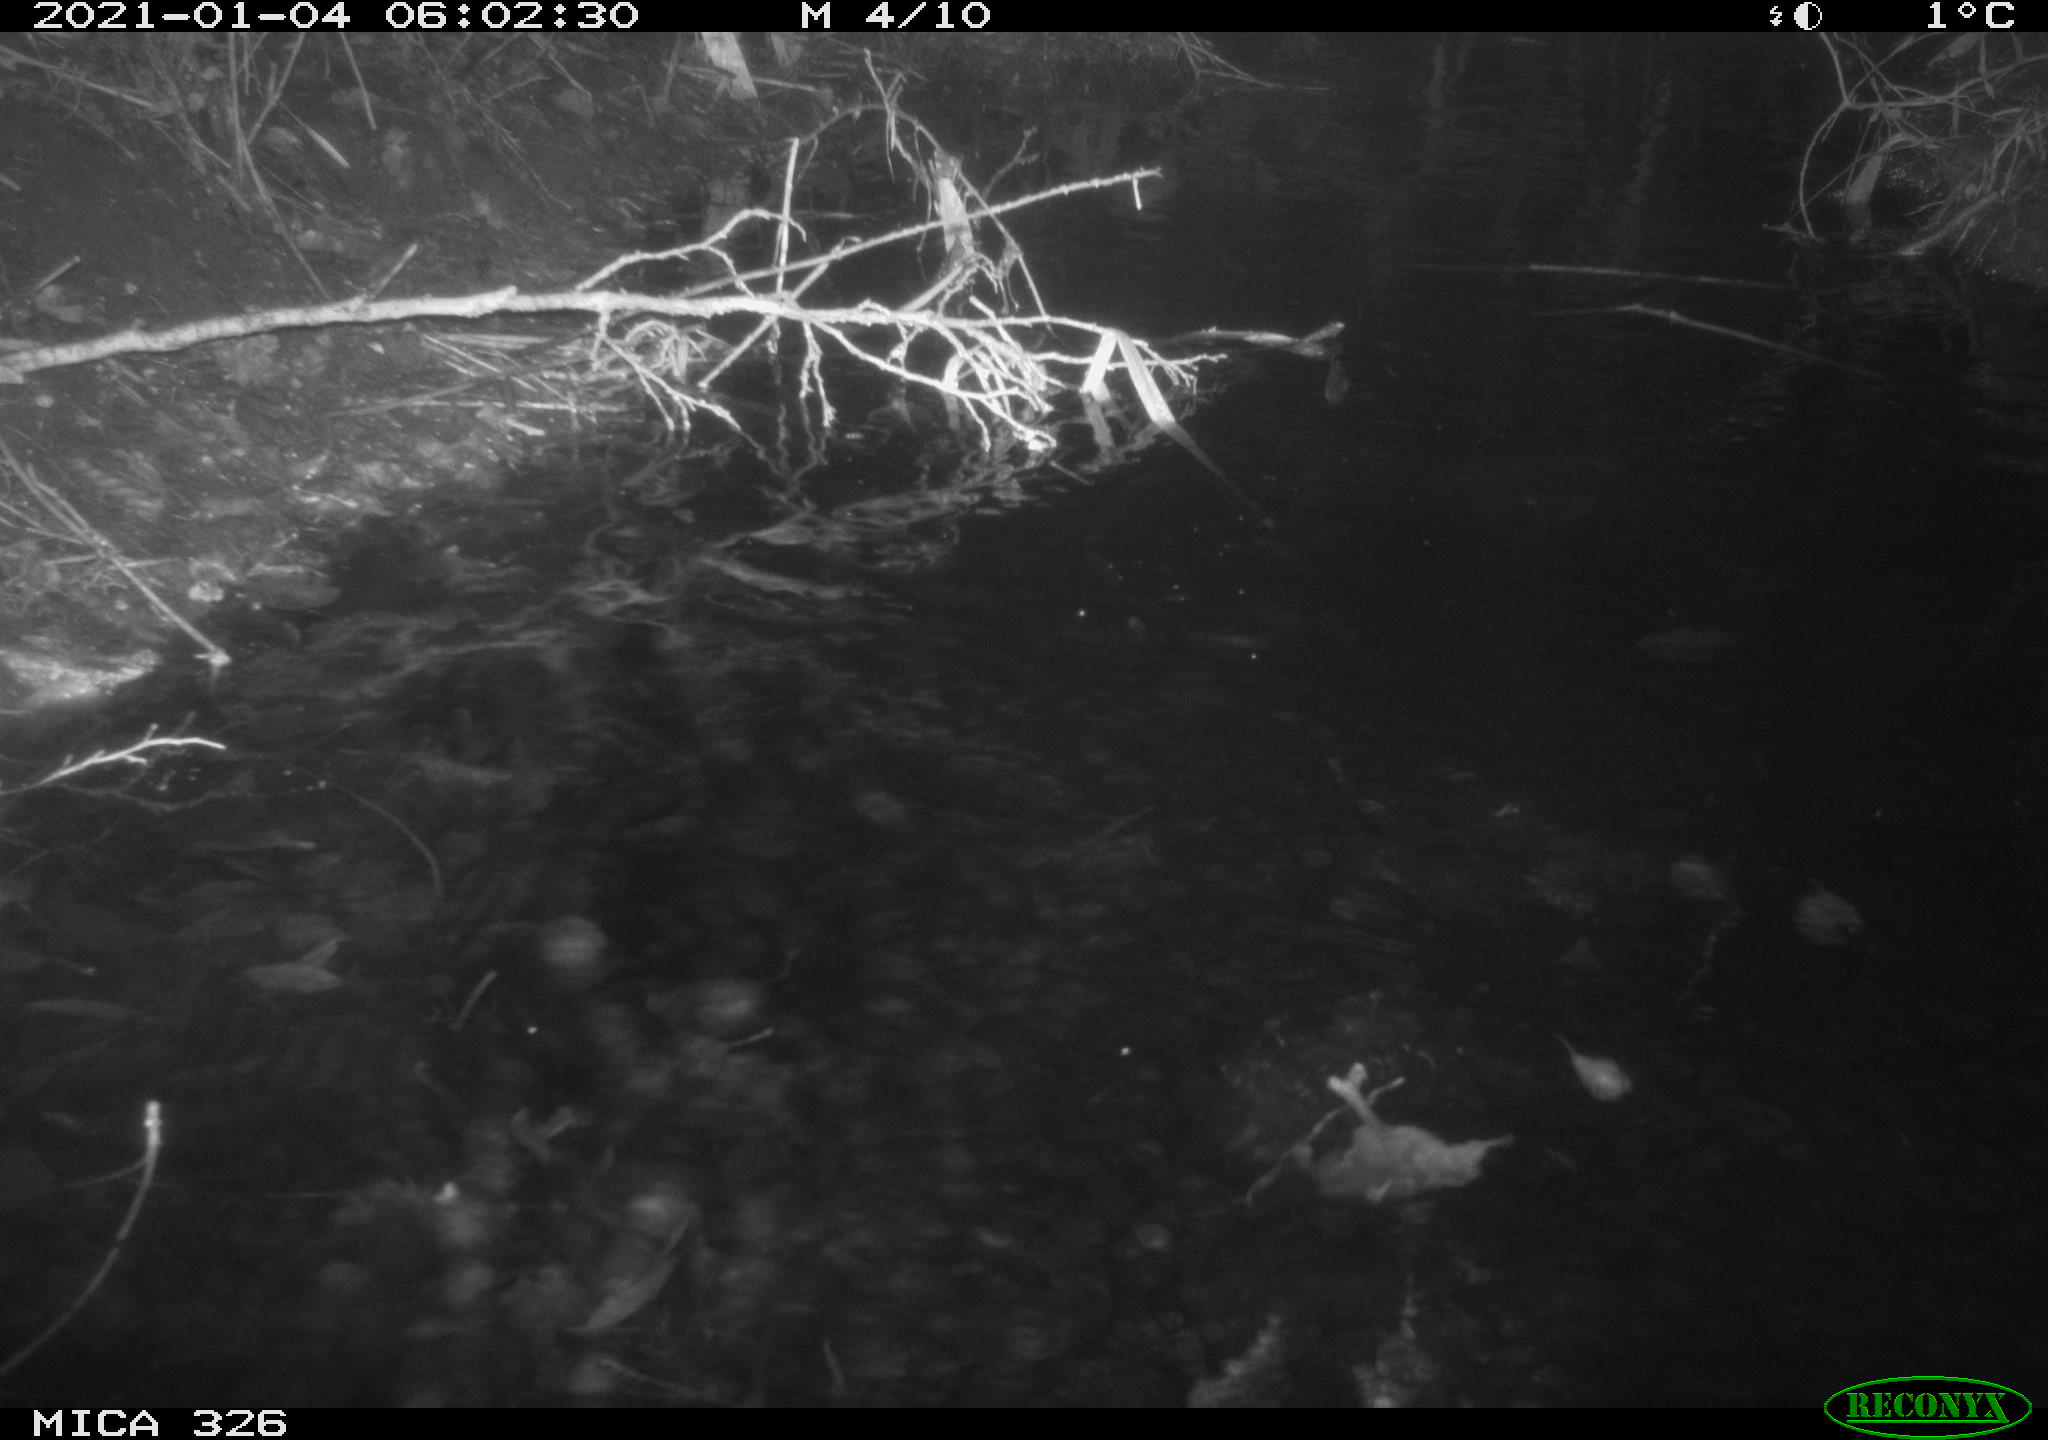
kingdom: Animalia
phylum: Chordata
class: Mammalia
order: Rodentia
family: Myocastoridae
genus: Myocastor
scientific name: Myocastor coypus
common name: Coypu
